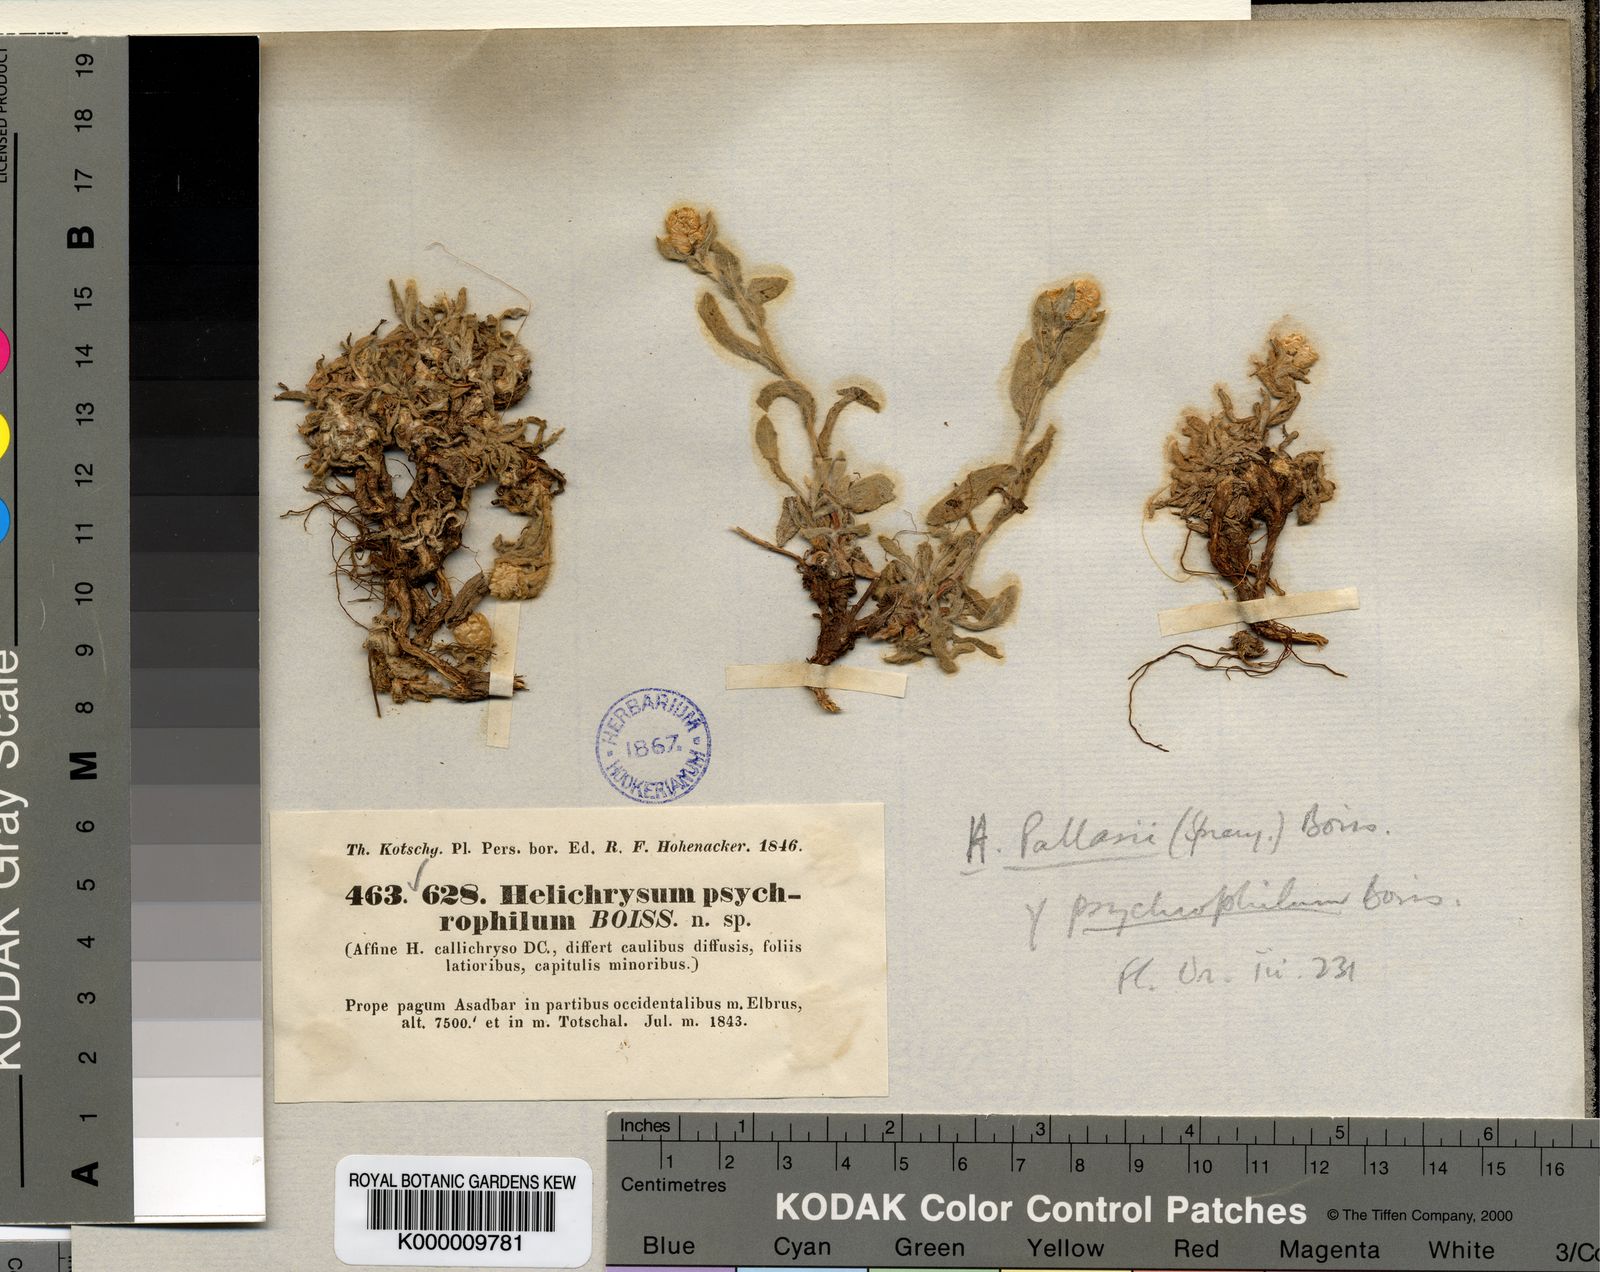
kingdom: Plantae
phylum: Tracheophyta
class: Magnoliopsida
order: Asterales
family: Asteraceae
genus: Helichrysum
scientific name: Helichrysum psychrophilum
